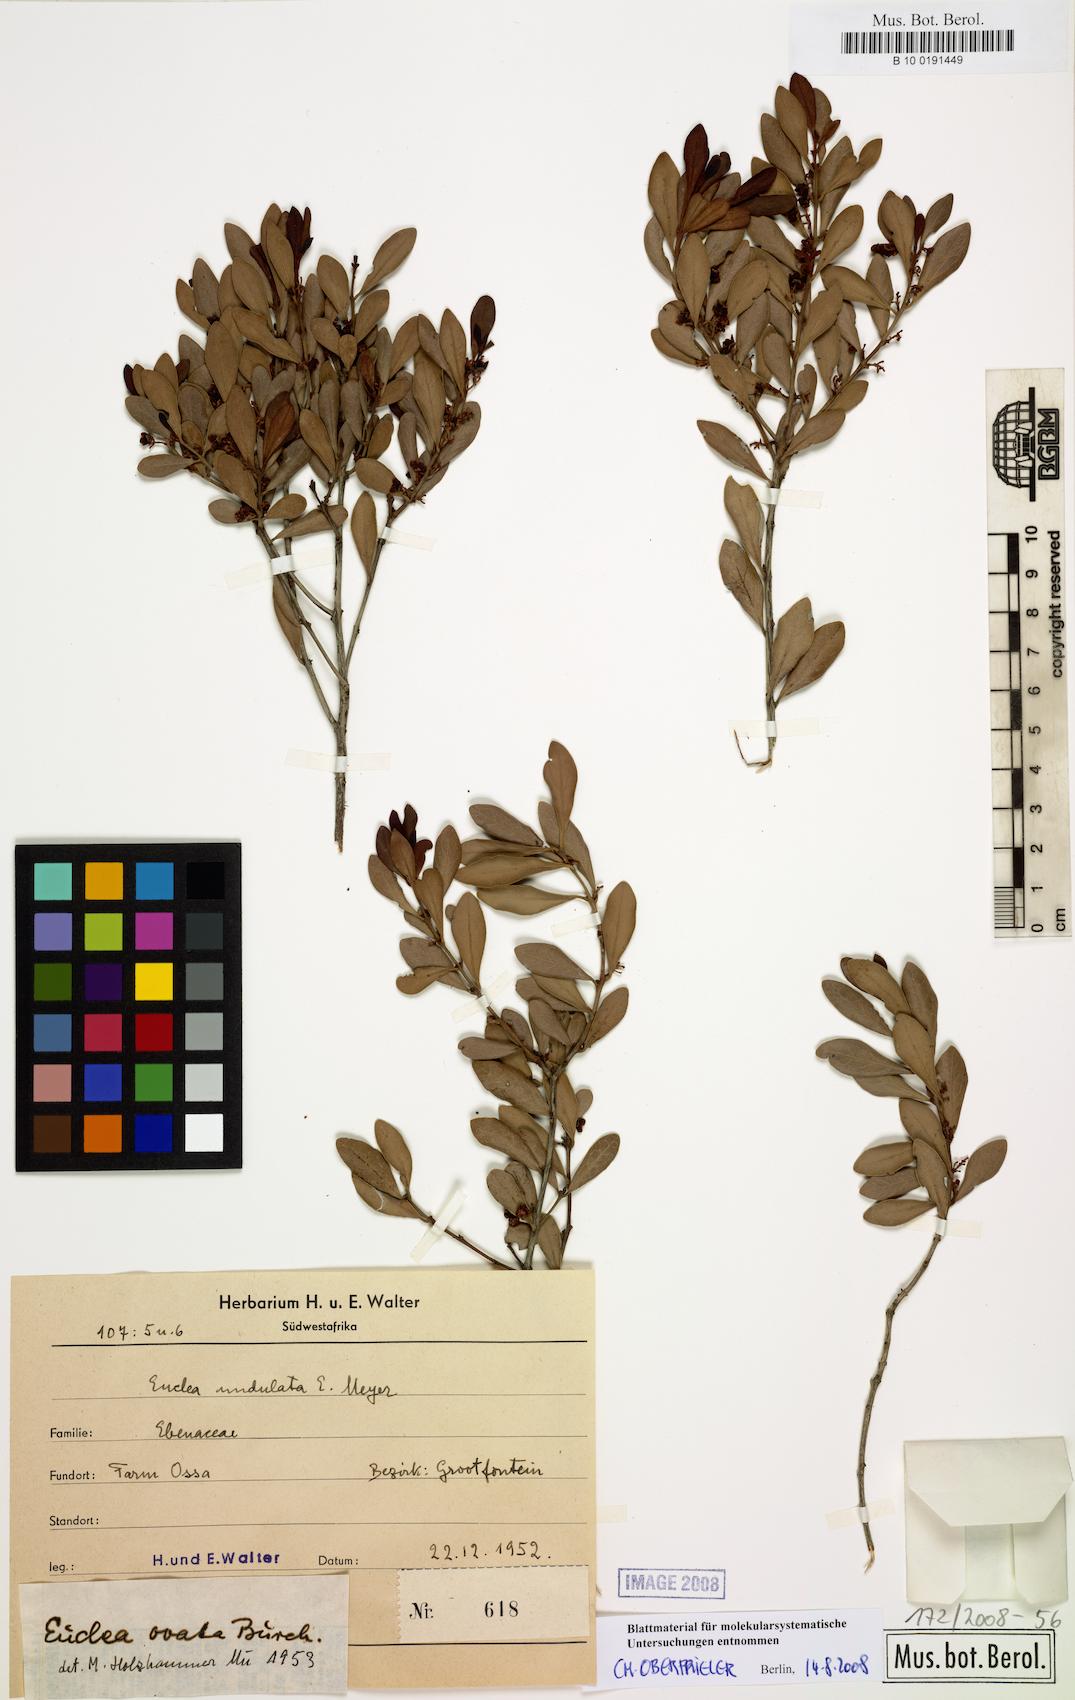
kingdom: Plantae
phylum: Tracheophyta
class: Magnoliopsida
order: Ericales
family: Ebenaceae
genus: Euclea
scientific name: Euclea crispa
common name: Blue guarri
